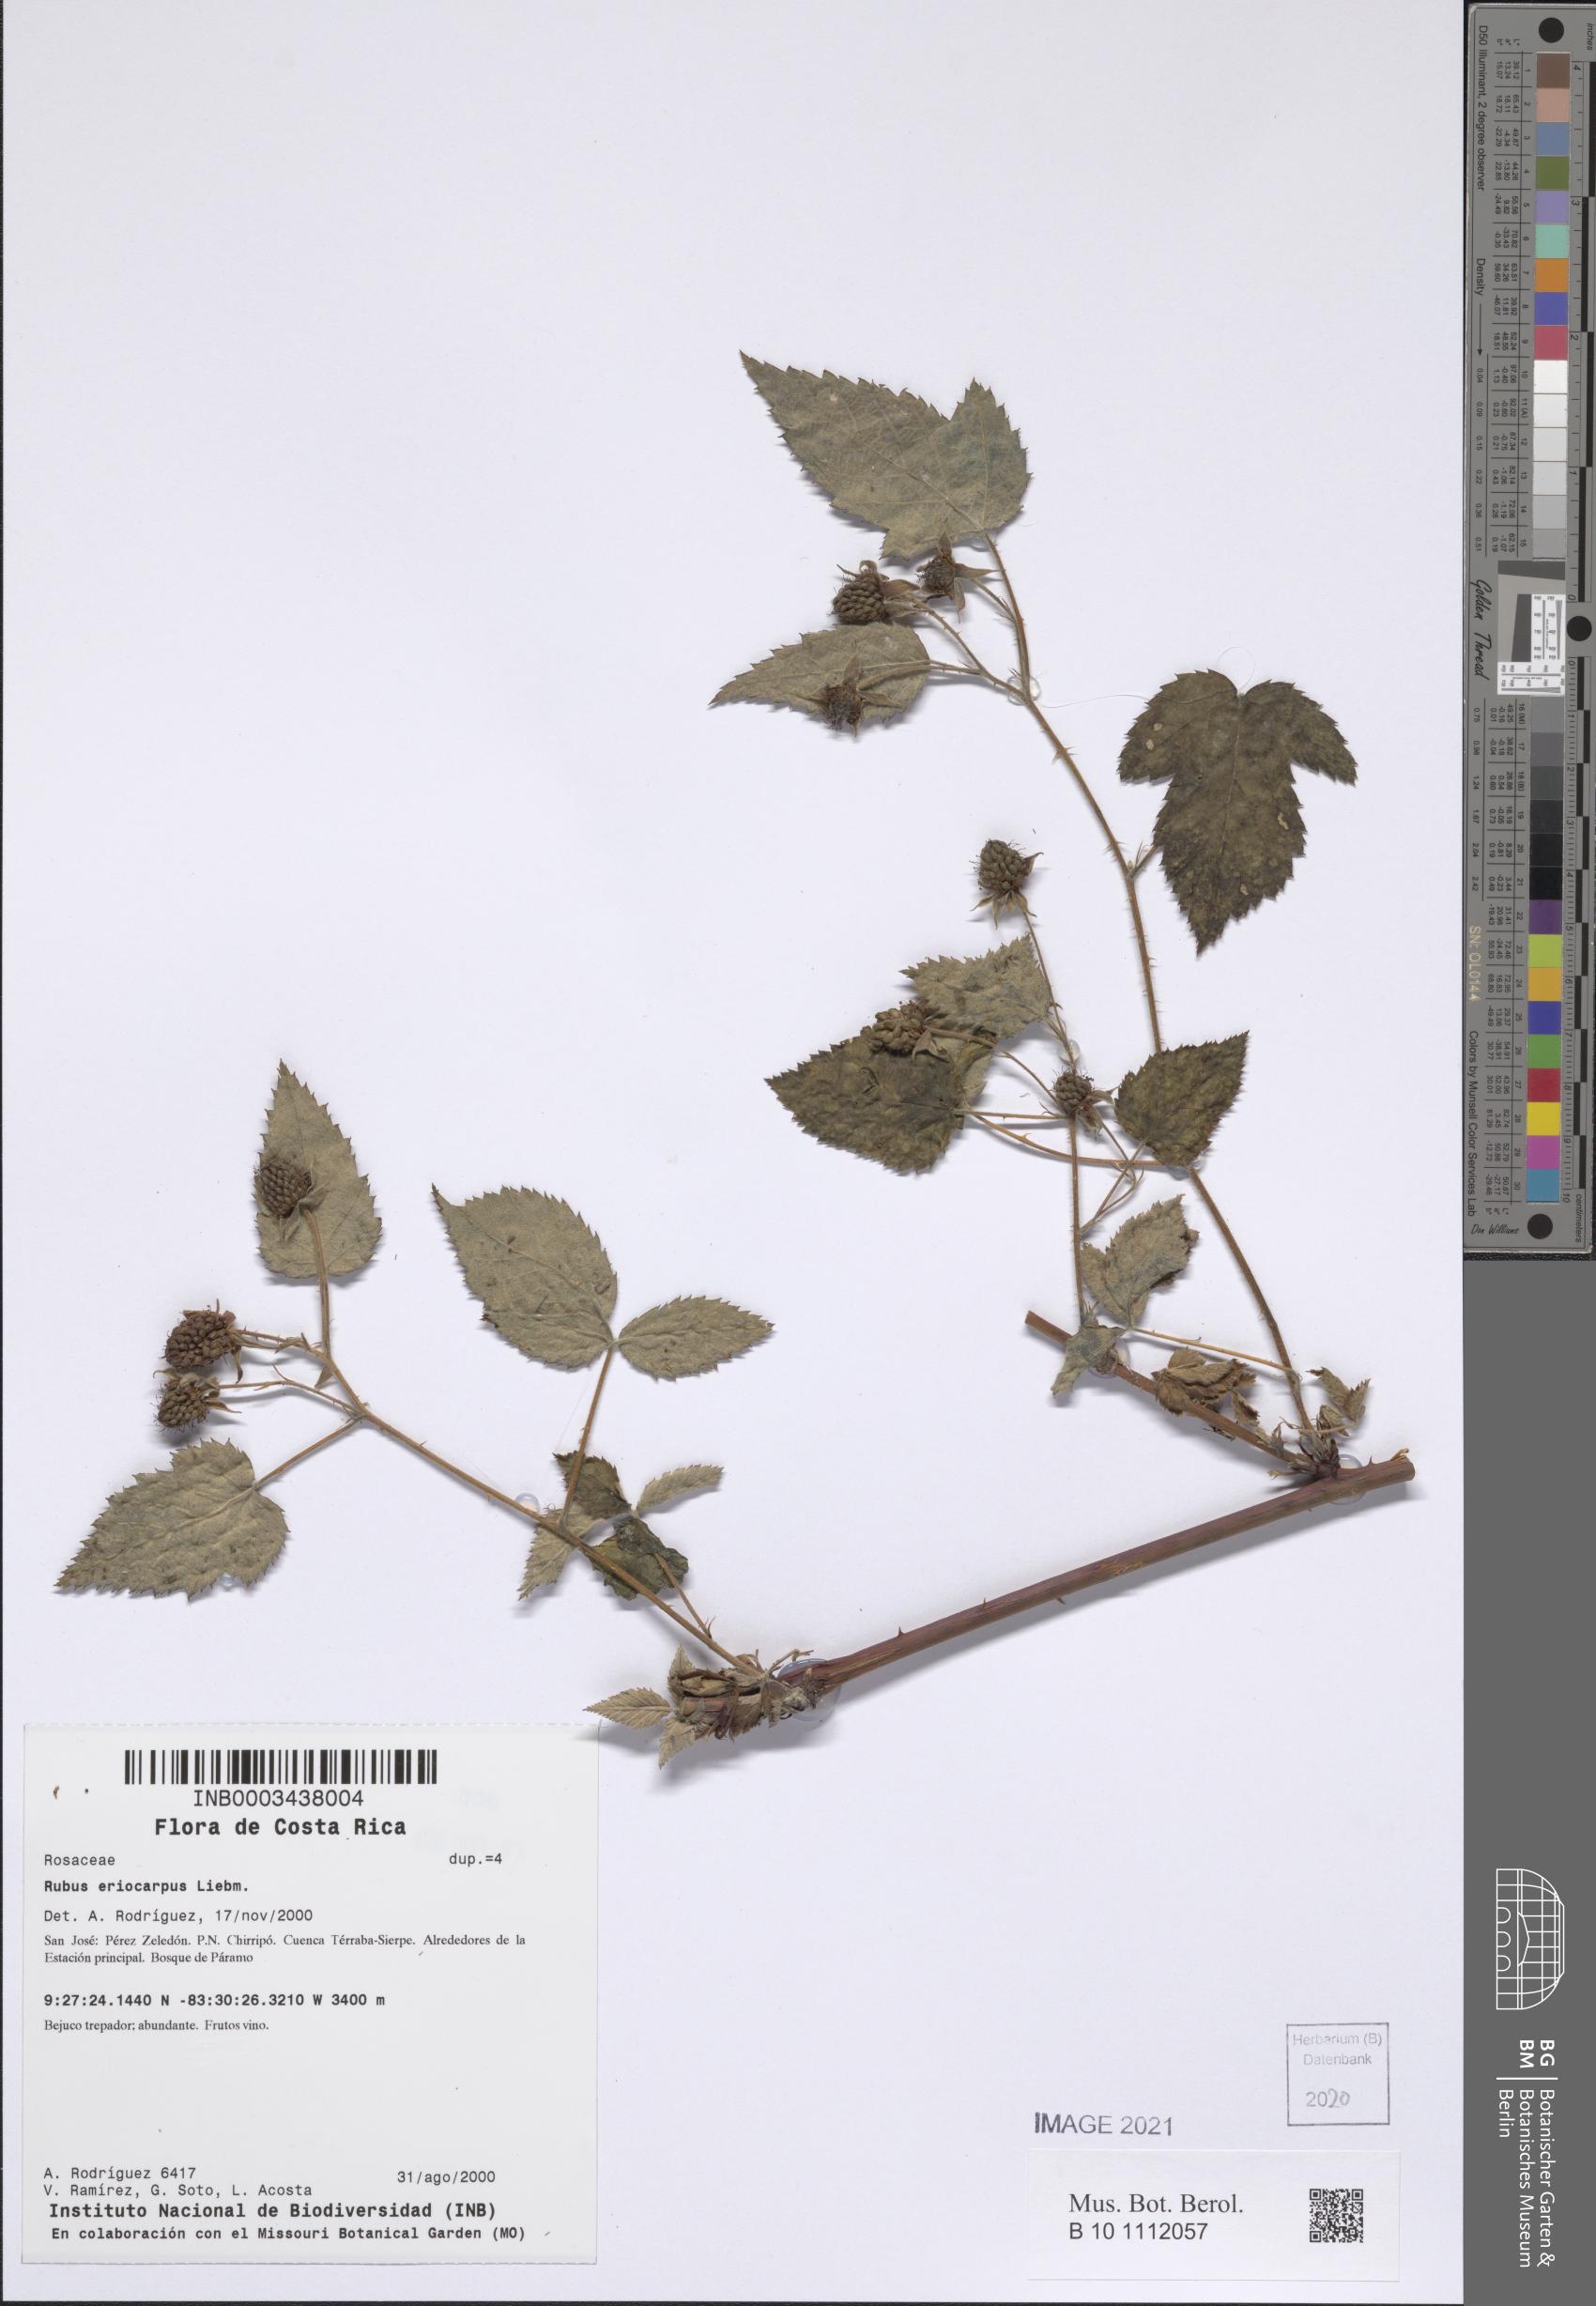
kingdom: Plantae
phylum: Tracheophyta
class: Magnoliopsida
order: Rosales
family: Rosaceae
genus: Rubus
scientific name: Rubus eriocarpus
